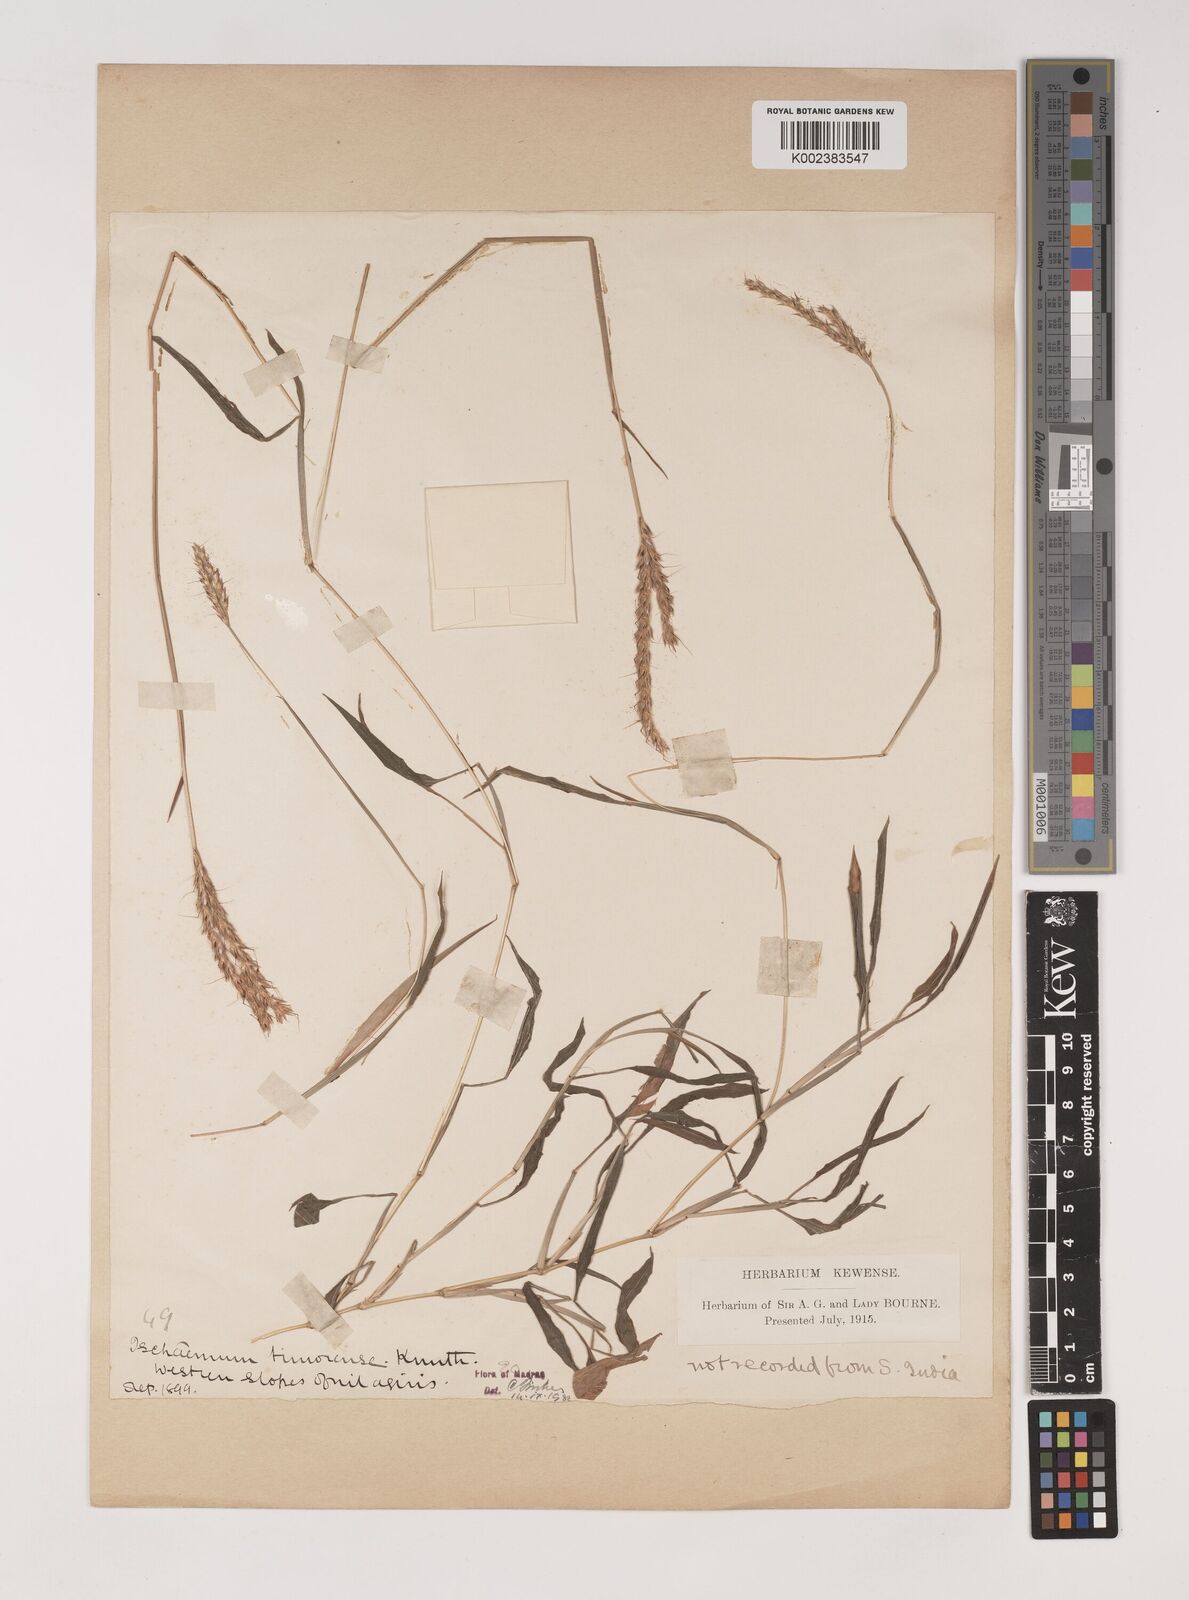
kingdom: Plantae
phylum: Tracheophyta
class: Liliopsida
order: Poales
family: Poaceae
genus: Ischaemum
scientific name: Ischaemum timorense
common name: Stalkleaf murainagrass
